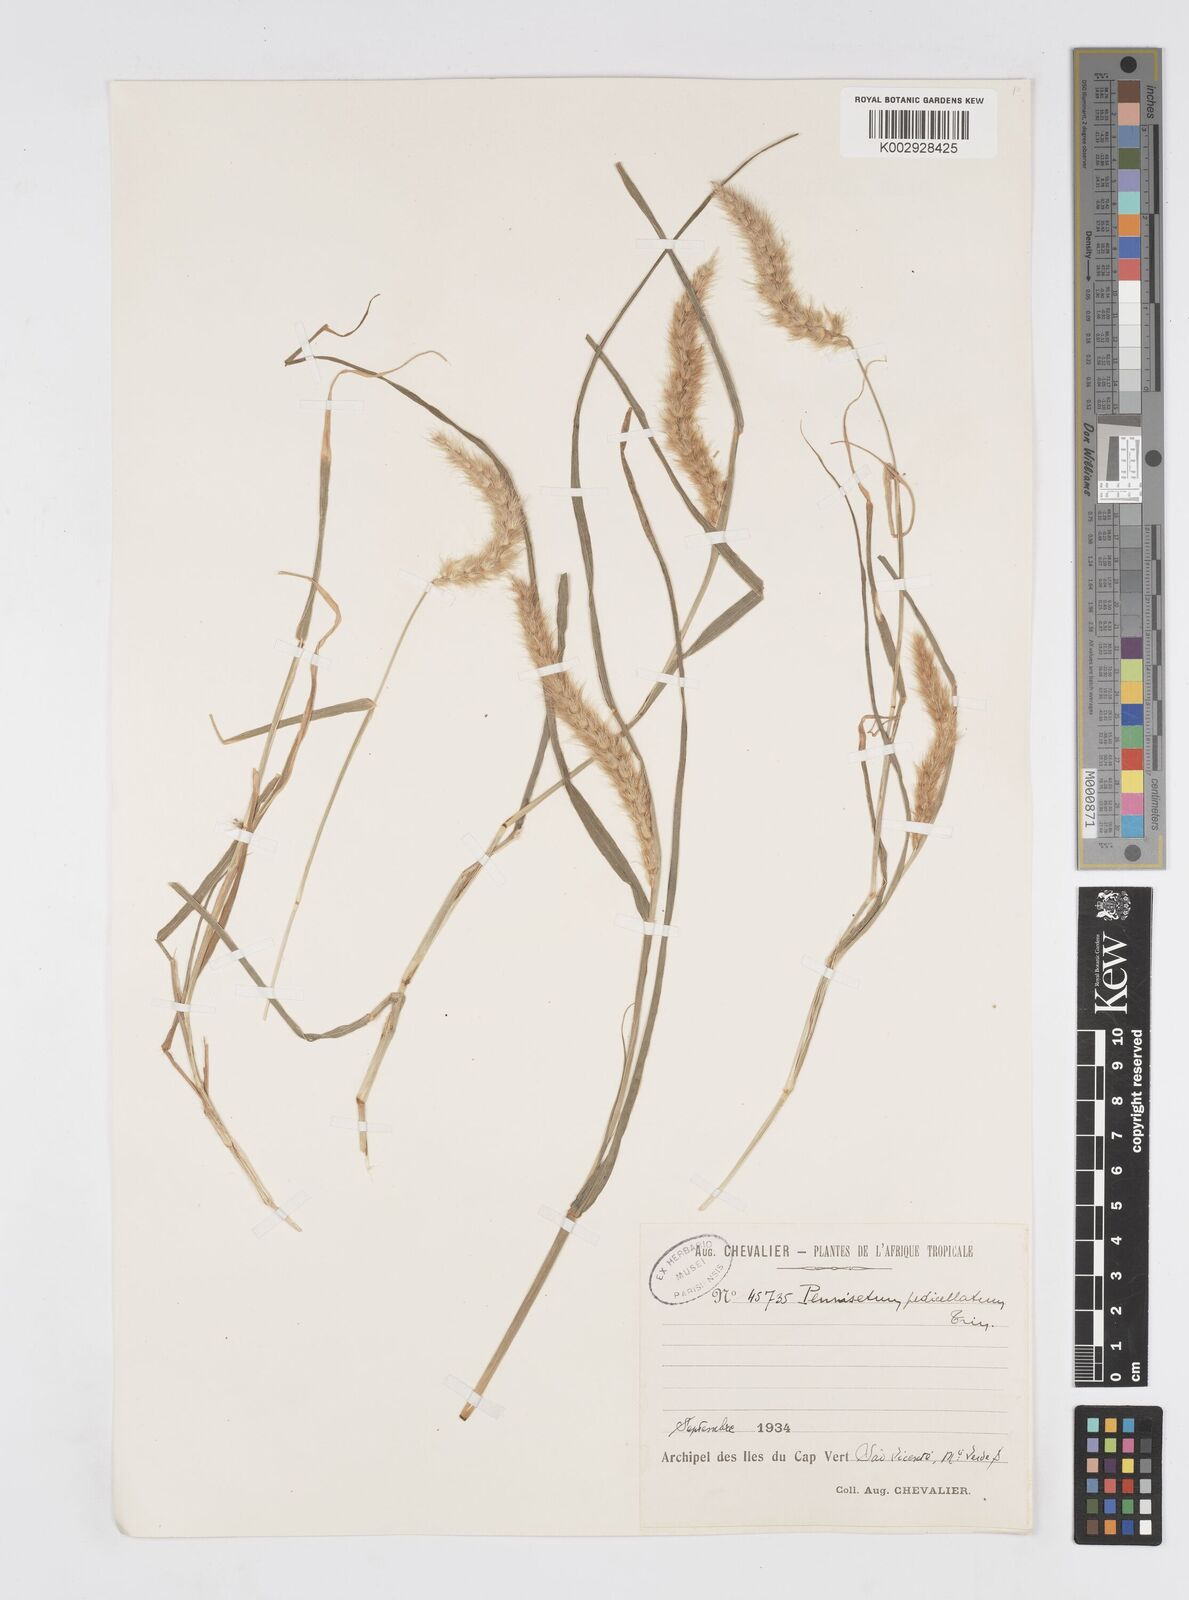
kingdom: Plantae
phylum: Tracheophyta
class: Liliopsida
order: Poales
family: Poaceae
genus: Cenchrus
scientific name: Cenchrus ciliaris
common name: Buffelgrass
